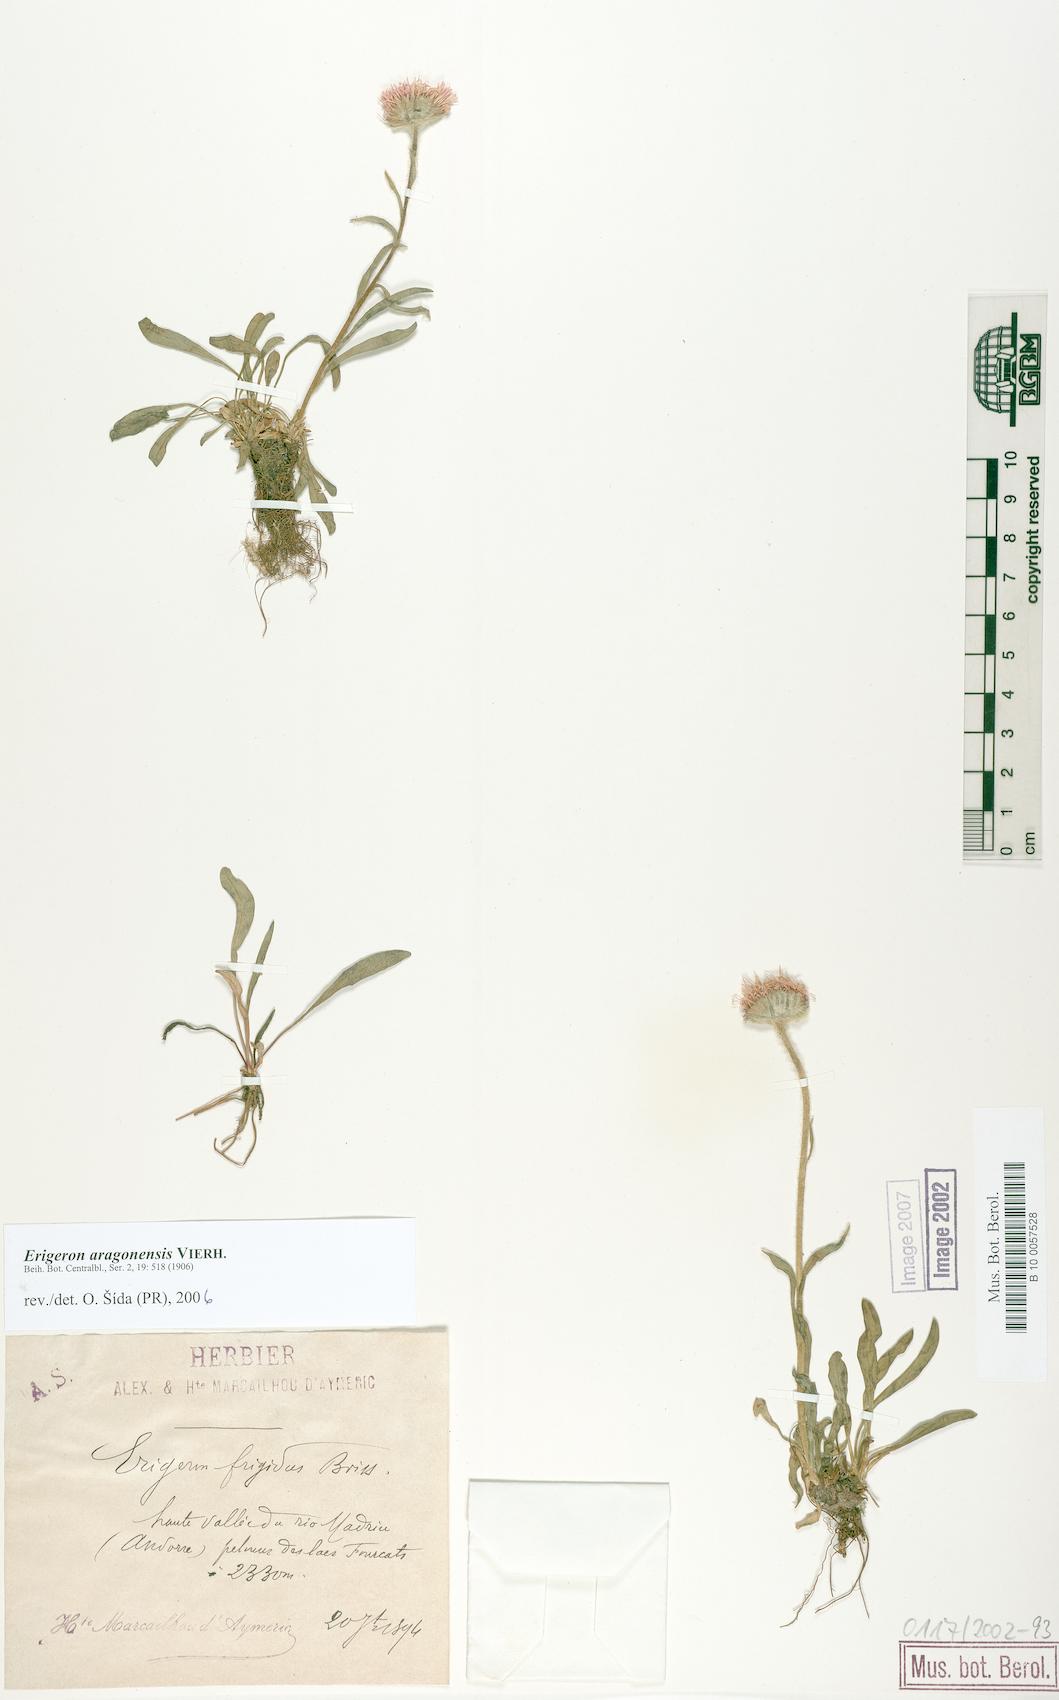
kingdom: Plantae
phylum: Tracheophyta
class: Magnoliopsida
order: Asterales
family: Asteraceae
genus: Erigeron
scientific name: Erigeron aragonensis
